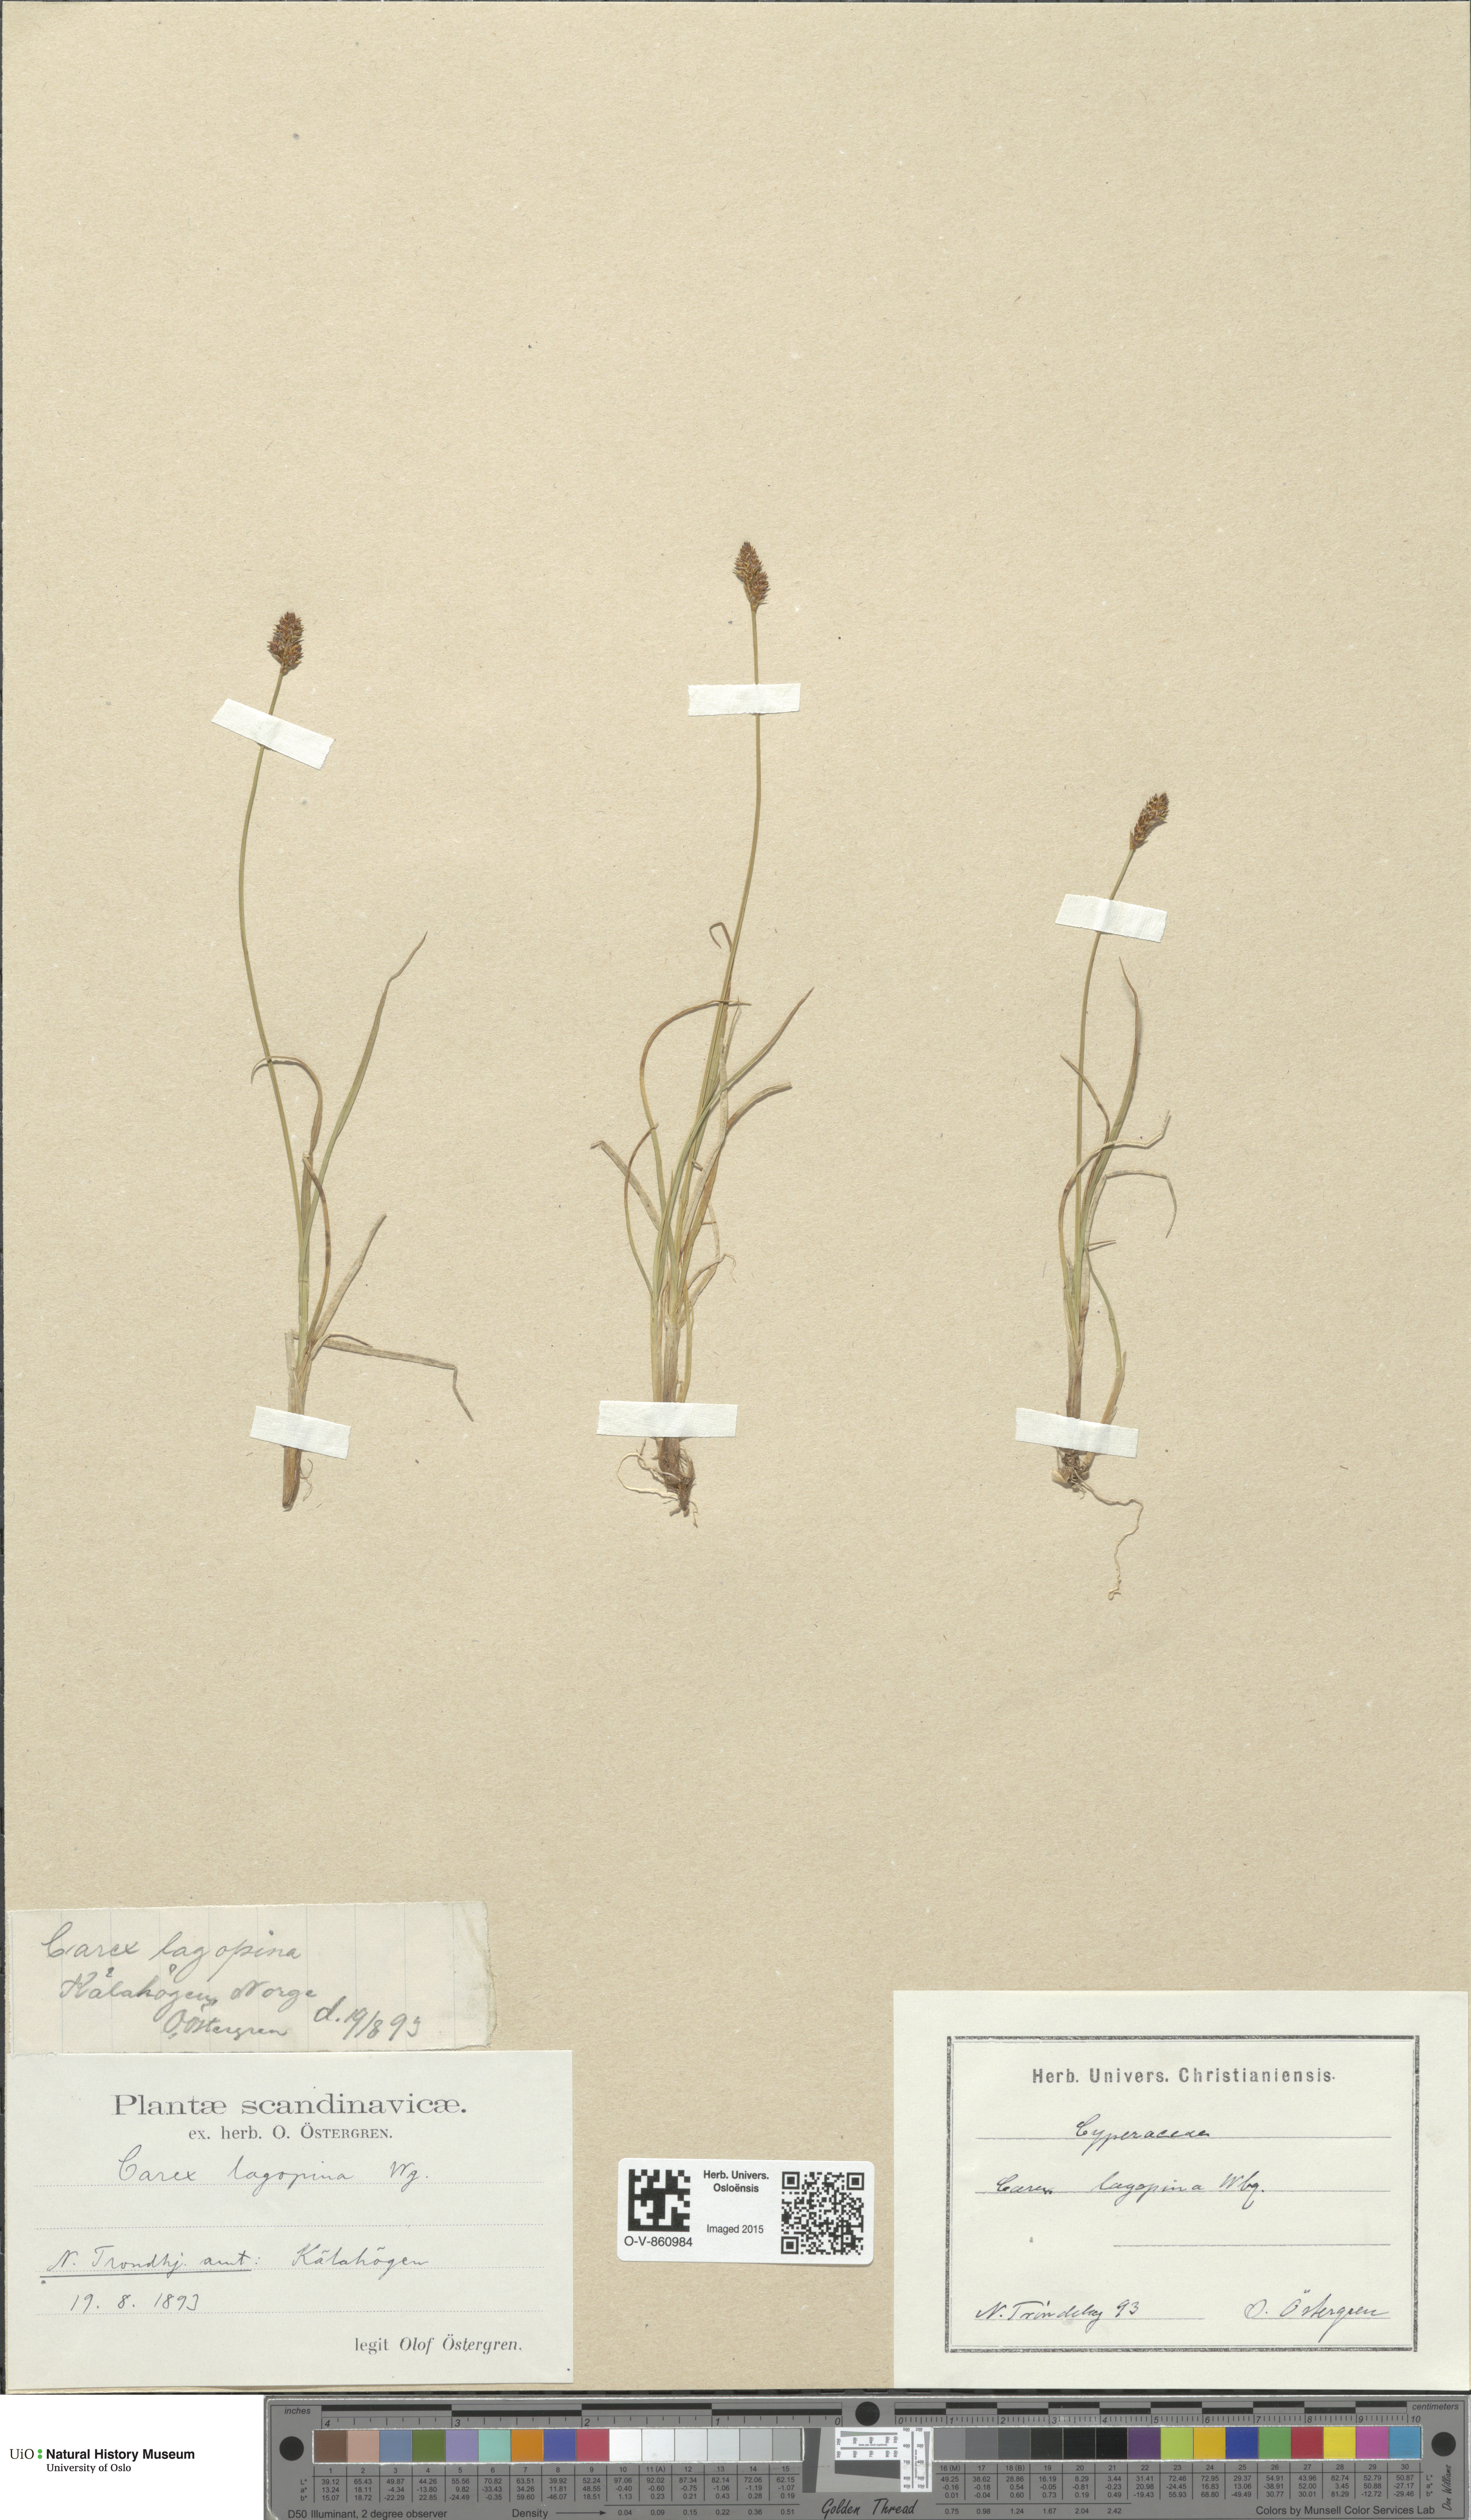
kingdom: Plantae
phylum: Tracheophyta
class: Liliopsida
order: Poales
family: Cyperaceae
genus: Carex
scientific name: Carex lachenalii
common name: Hare's-foot sedge
